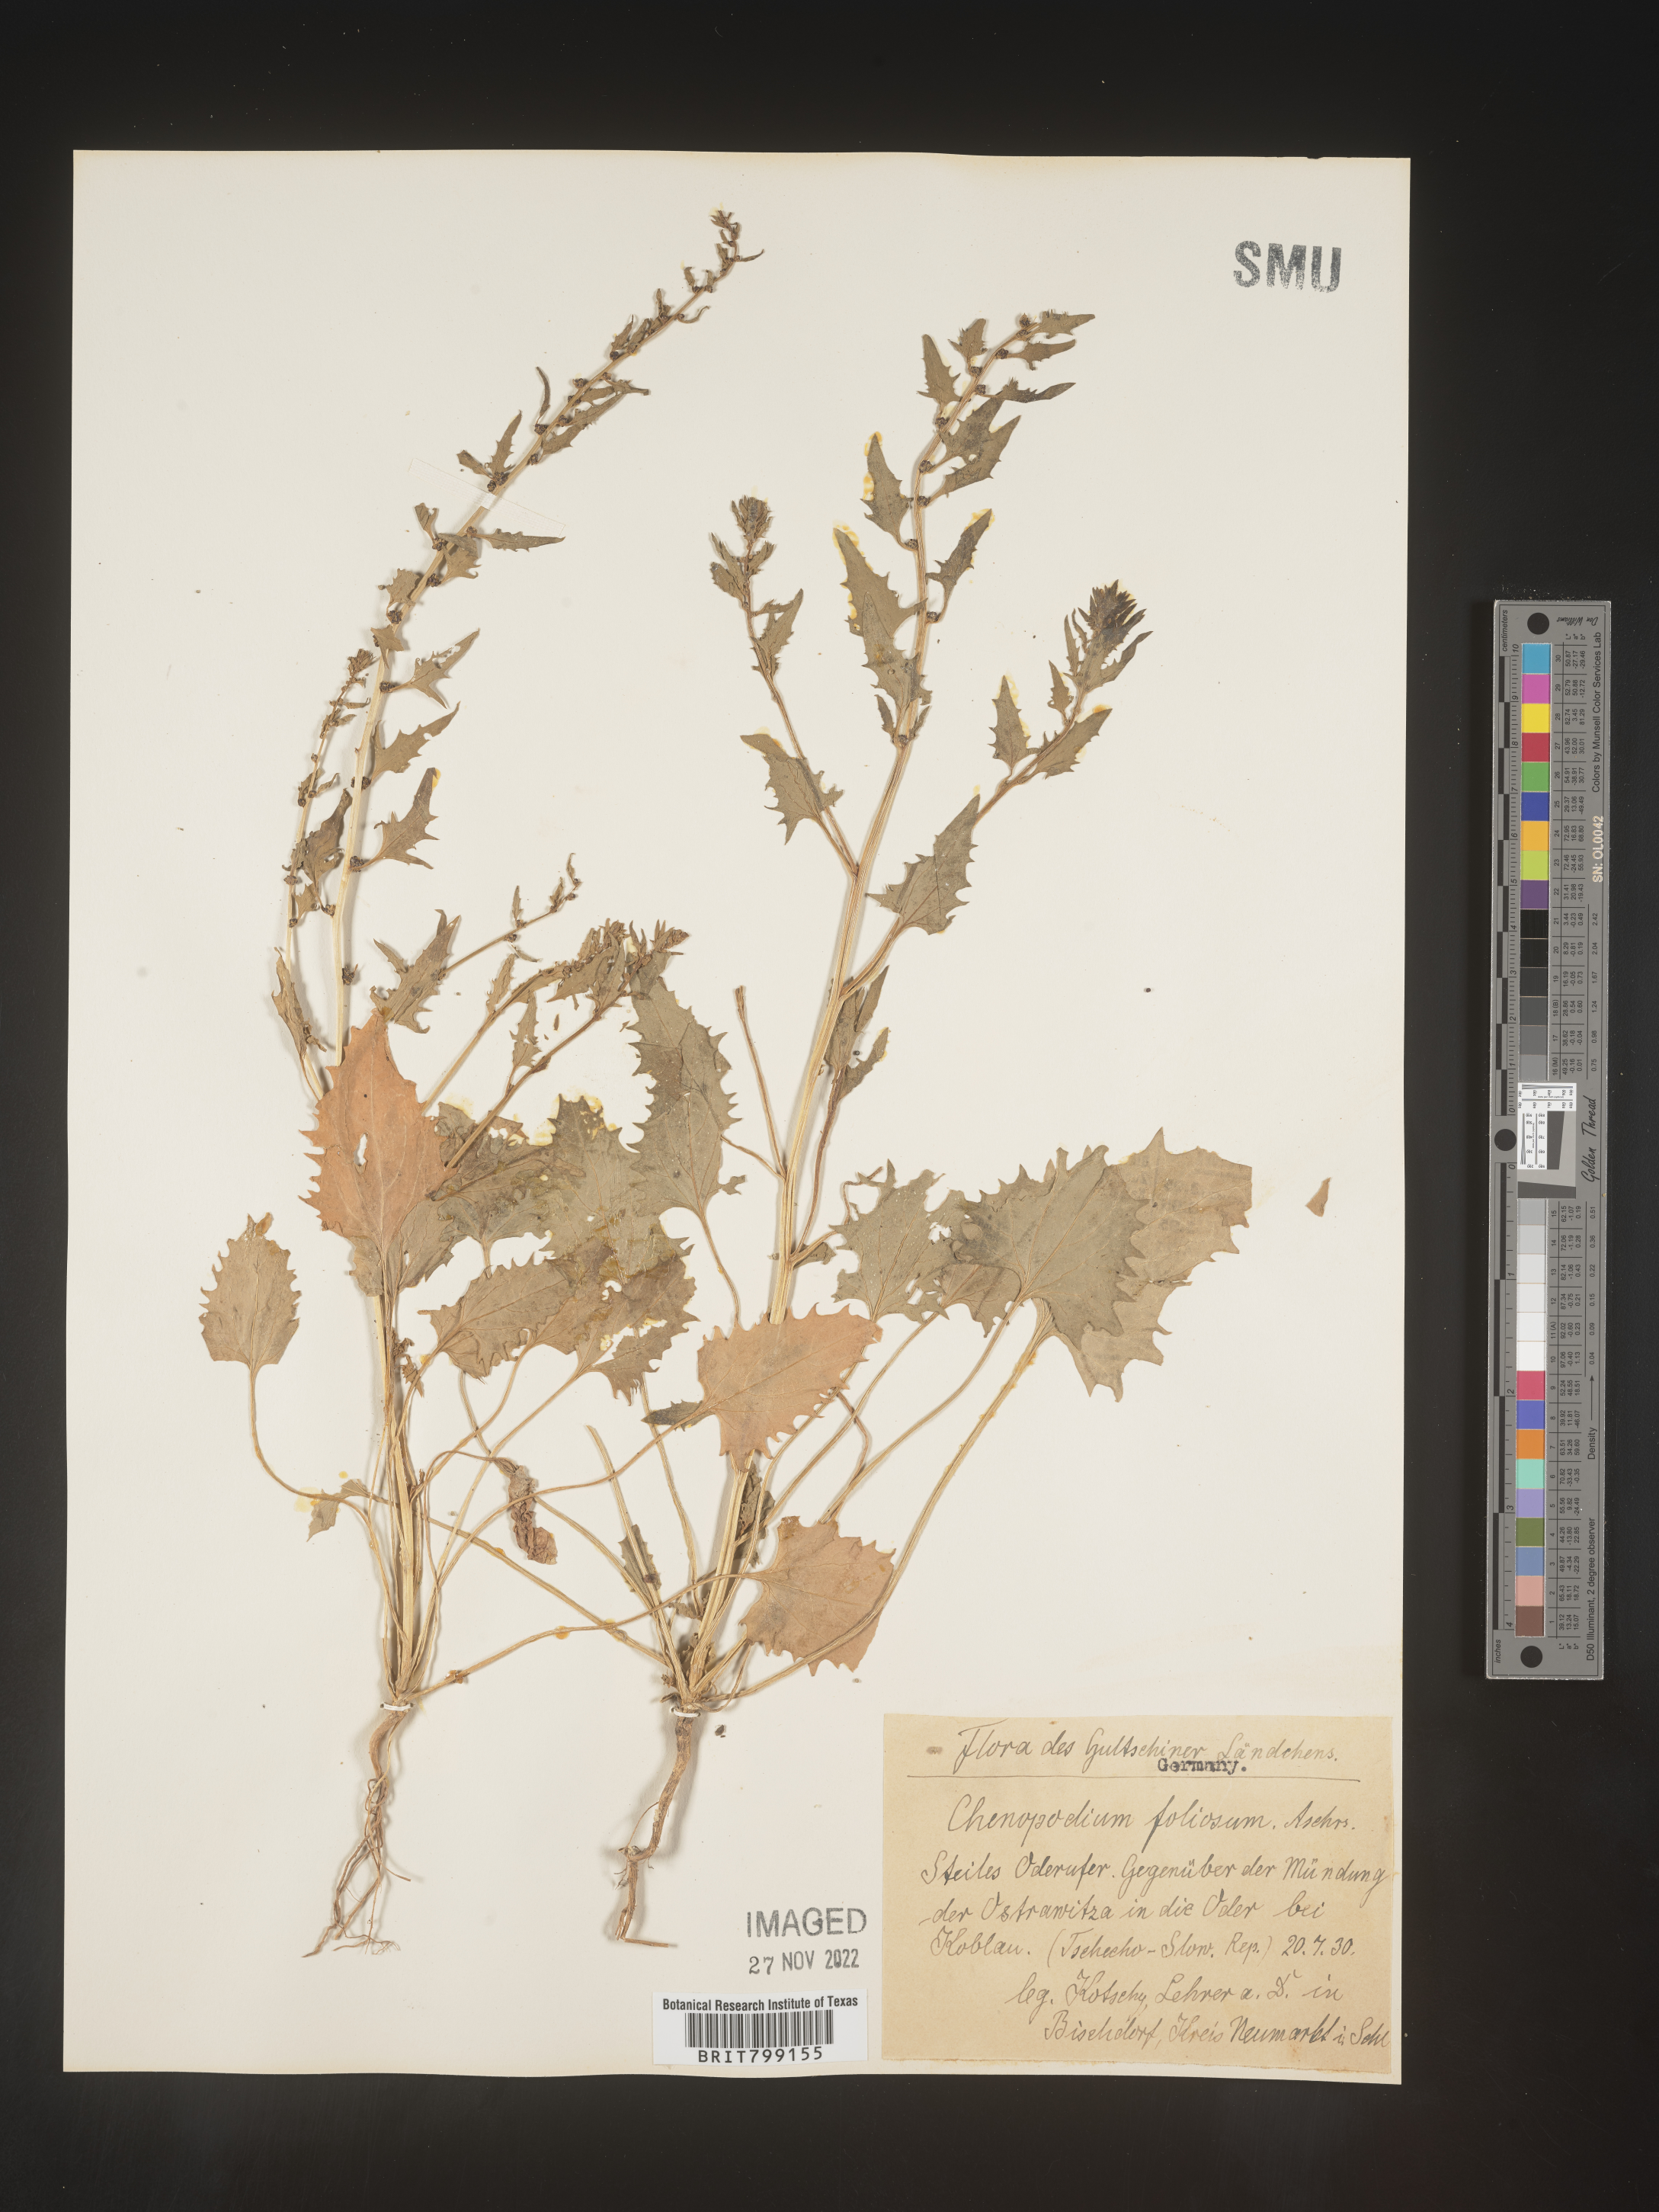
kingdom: Plantae
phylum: Tracheophyta
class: Magnoliopsida
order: Caryophyllales
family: Amaranthaceae
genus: Chenopodium
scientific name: Chenopodium
